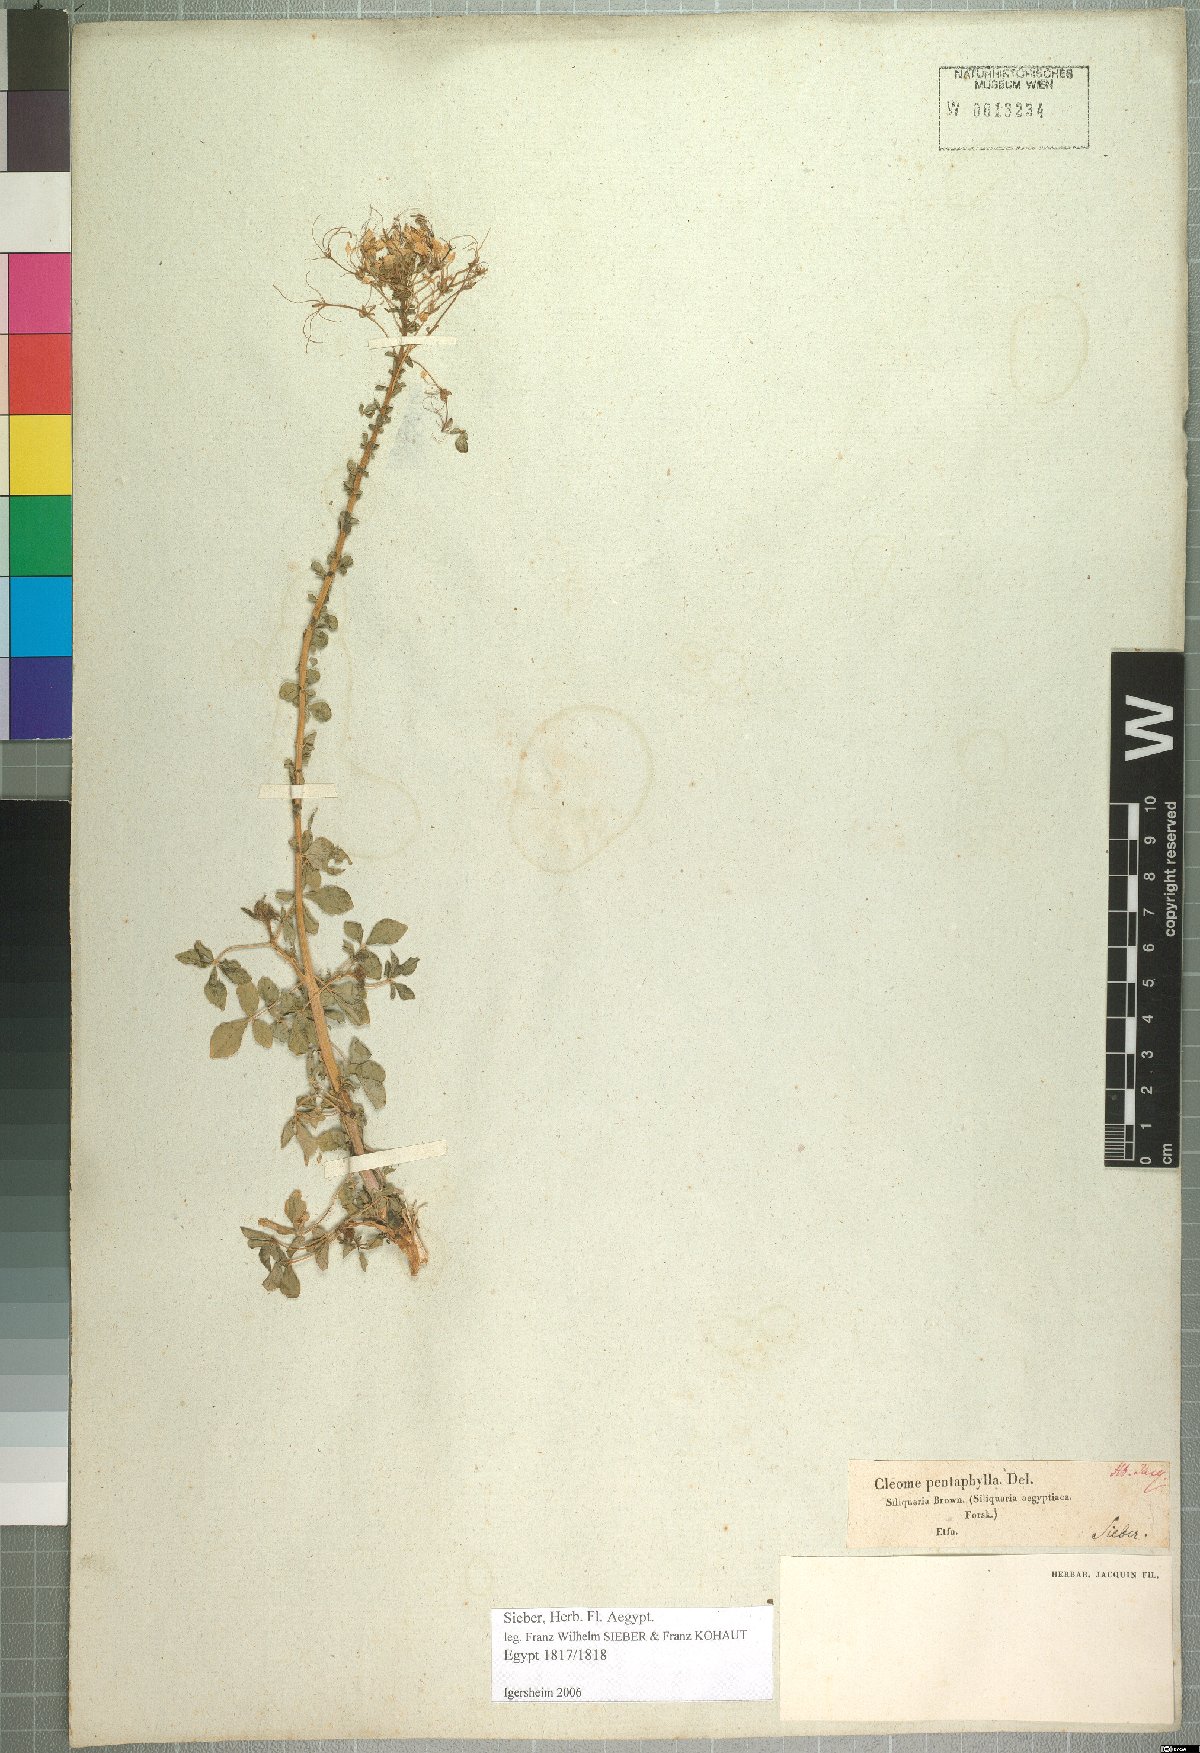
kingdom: Plantae
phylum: Tracheophyta
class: Magnoliopsida
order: Brassicales
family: Cleomaceae
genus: Gynandropsis
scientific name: Gynandropsis gynandra
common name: Spiderwisp
